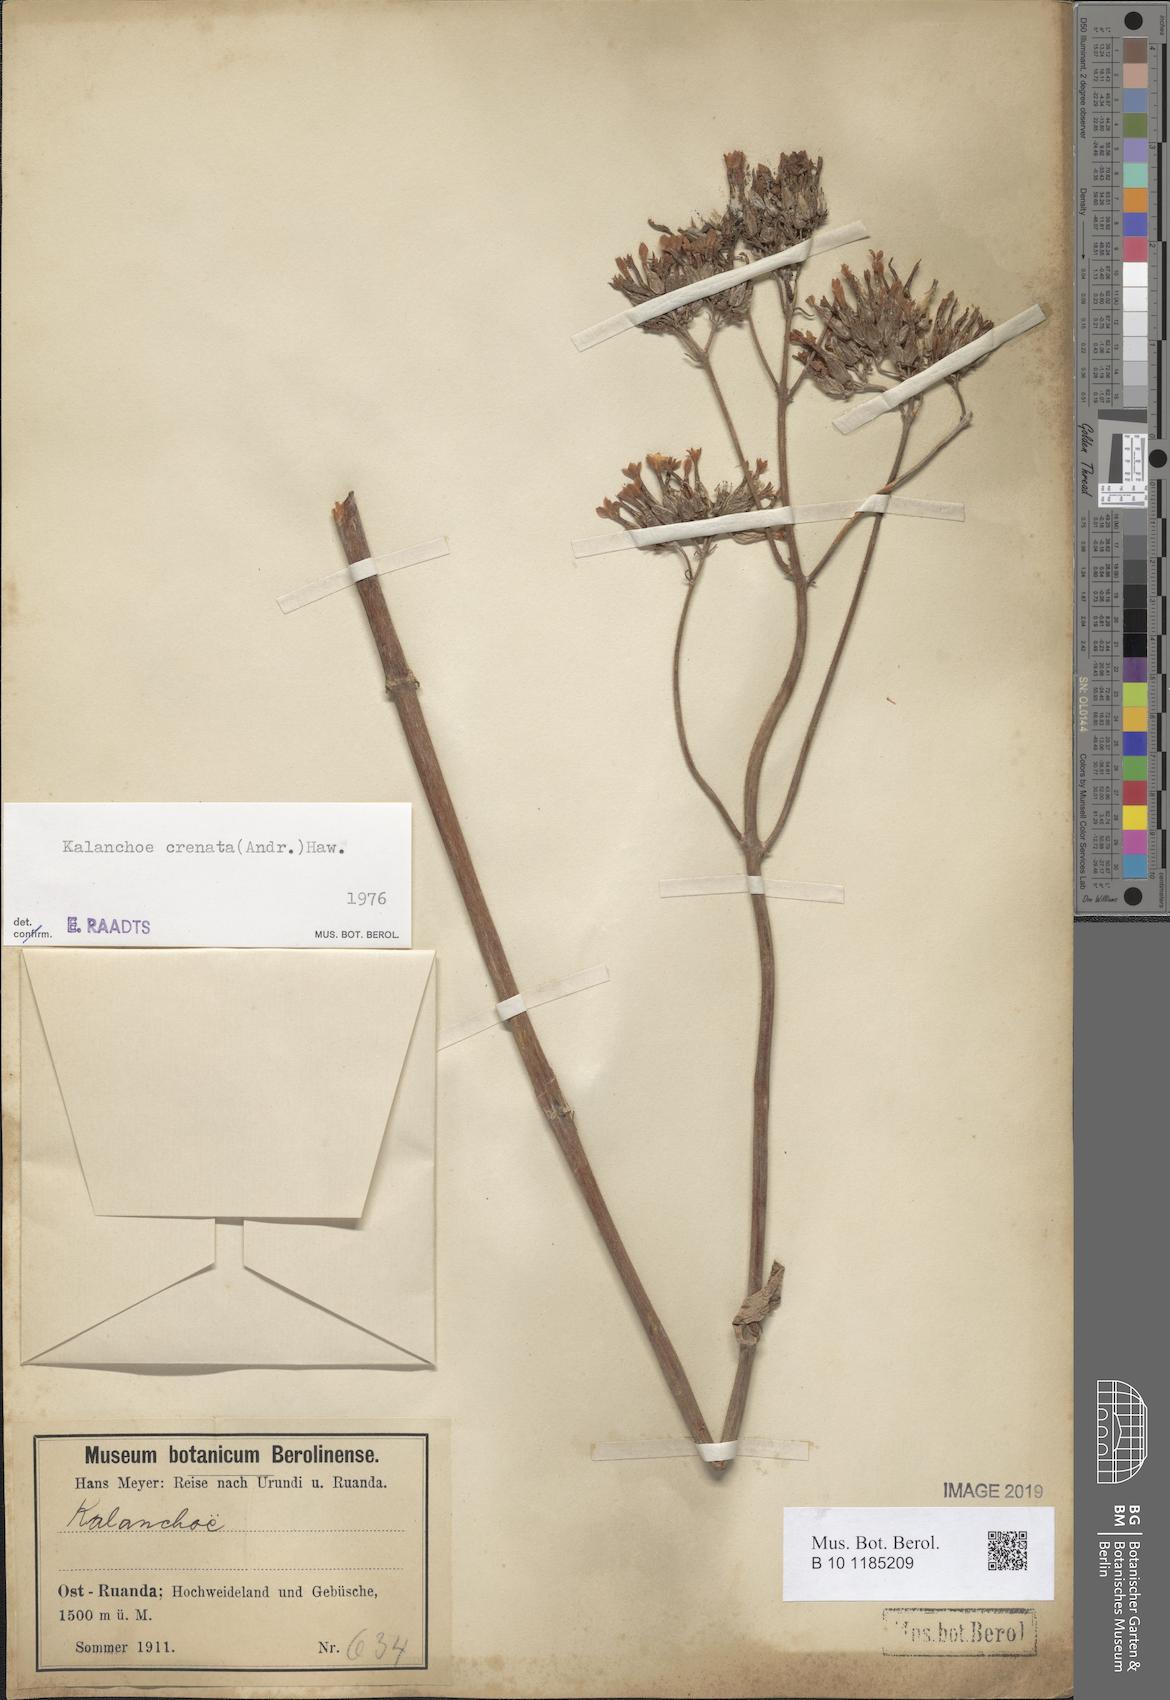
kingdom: Plantae
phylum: Tracheophyta
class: Magnoliopsida
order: Saxifragales
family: Crassulaceae
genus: Kalanchoe
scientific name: Kalanchoe crenata
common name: Neverdie
